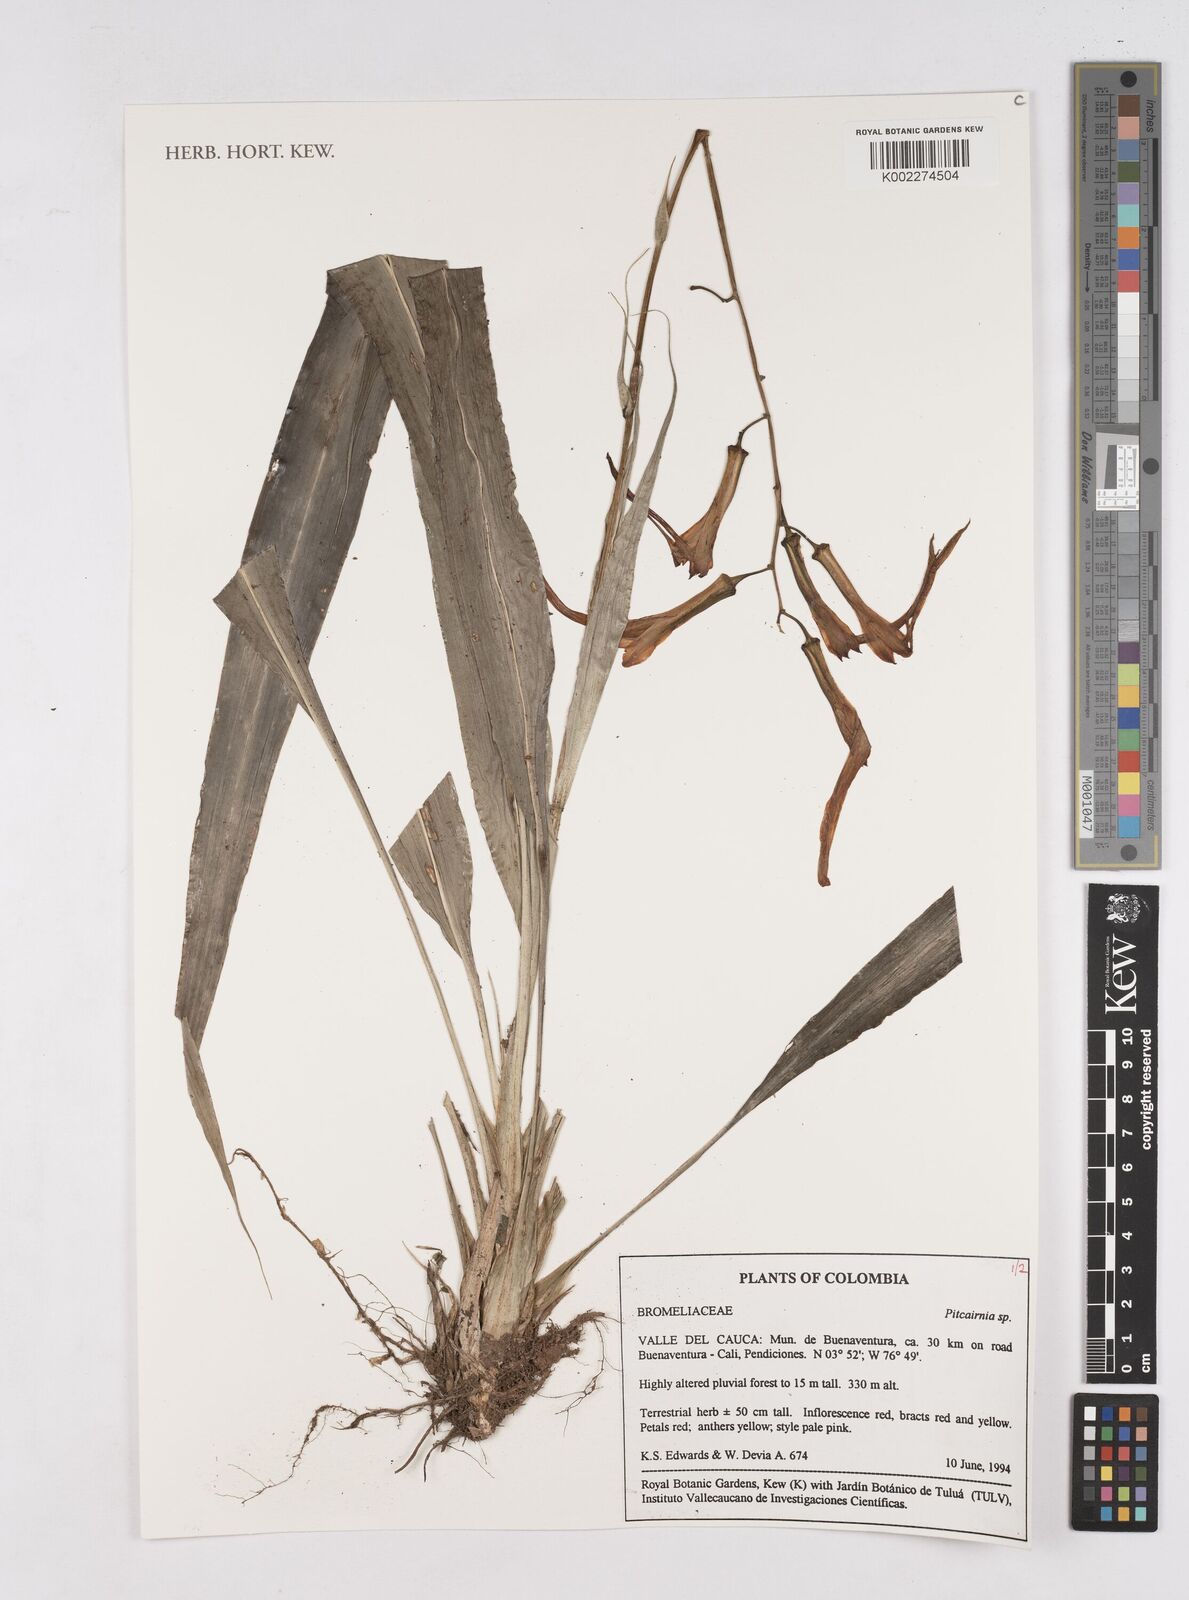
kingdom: Plantae
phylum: Tracheophyta
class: Liliopsida
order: Poales
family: Bromeliaceae
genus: Pitcairnia
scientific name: Pitcairnia
